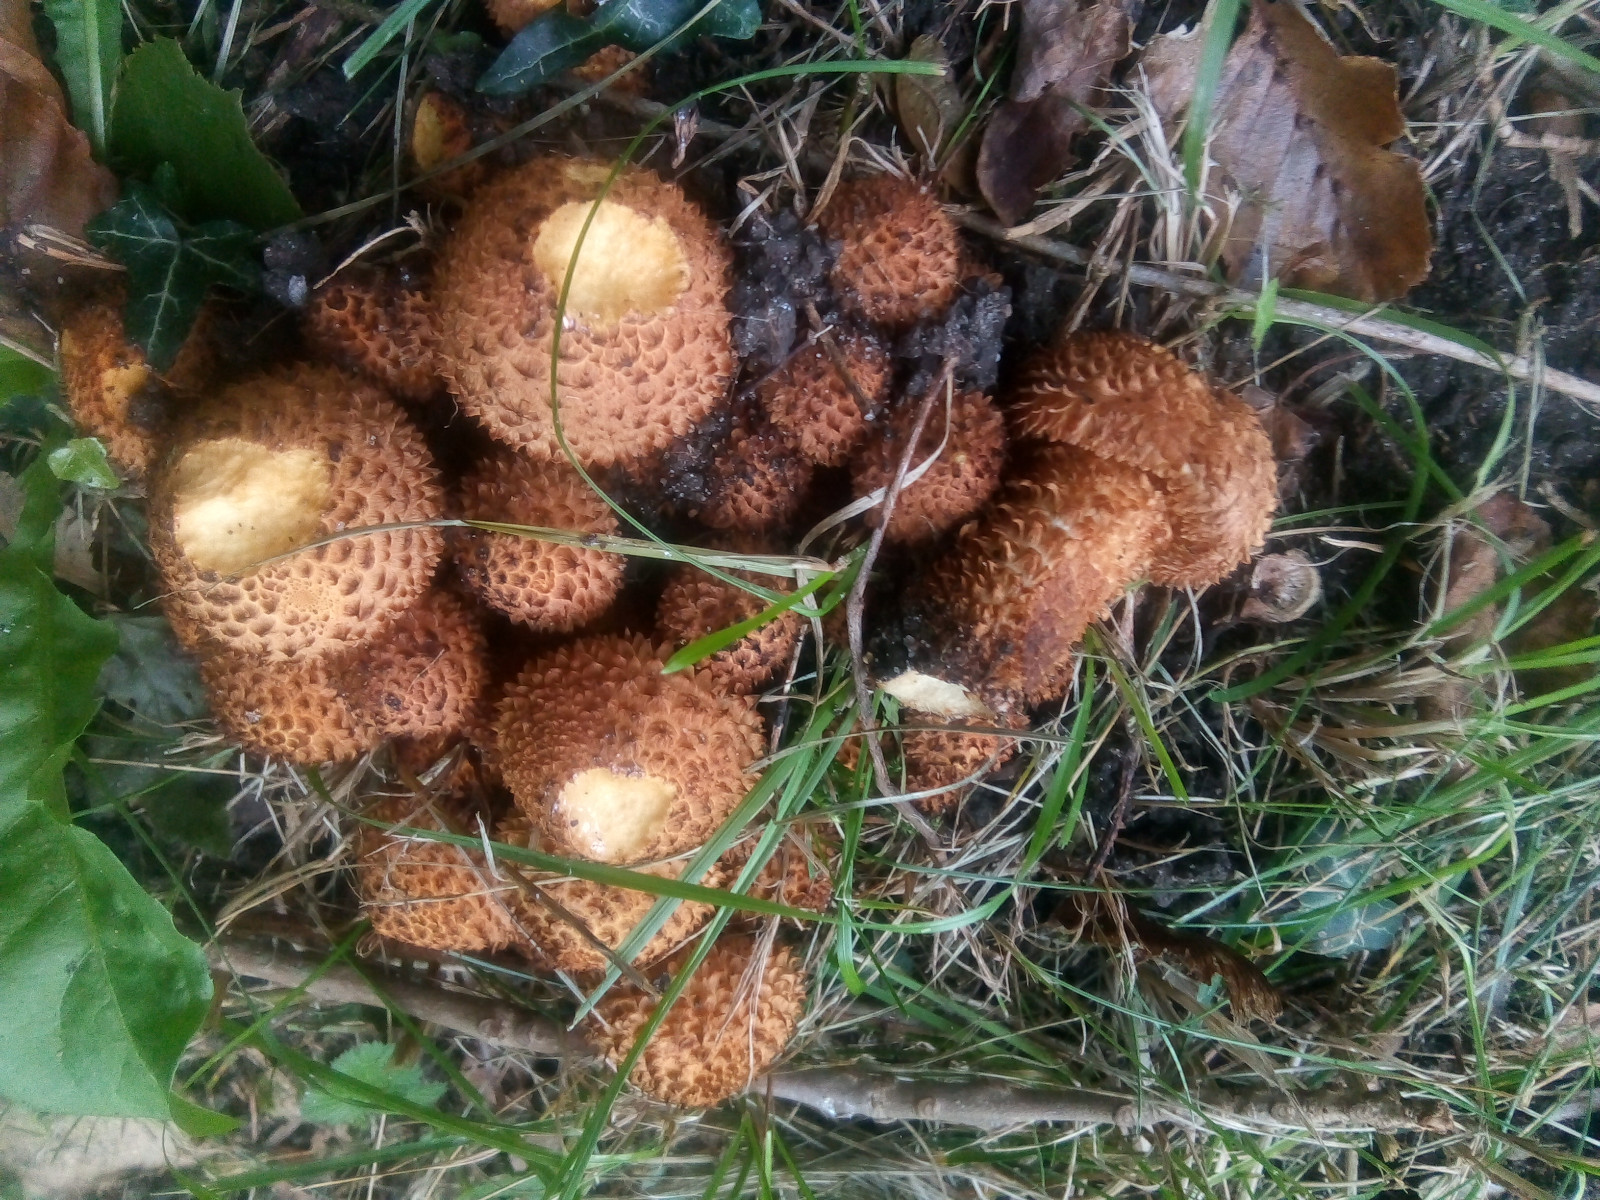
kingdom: Fungi
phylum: Basidiomycota
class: Agaricomycetes
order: Agaricales
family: Strophariaceae
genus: Pholiota
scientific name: Pholiota squarrosa
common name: krumskællet skælhat
